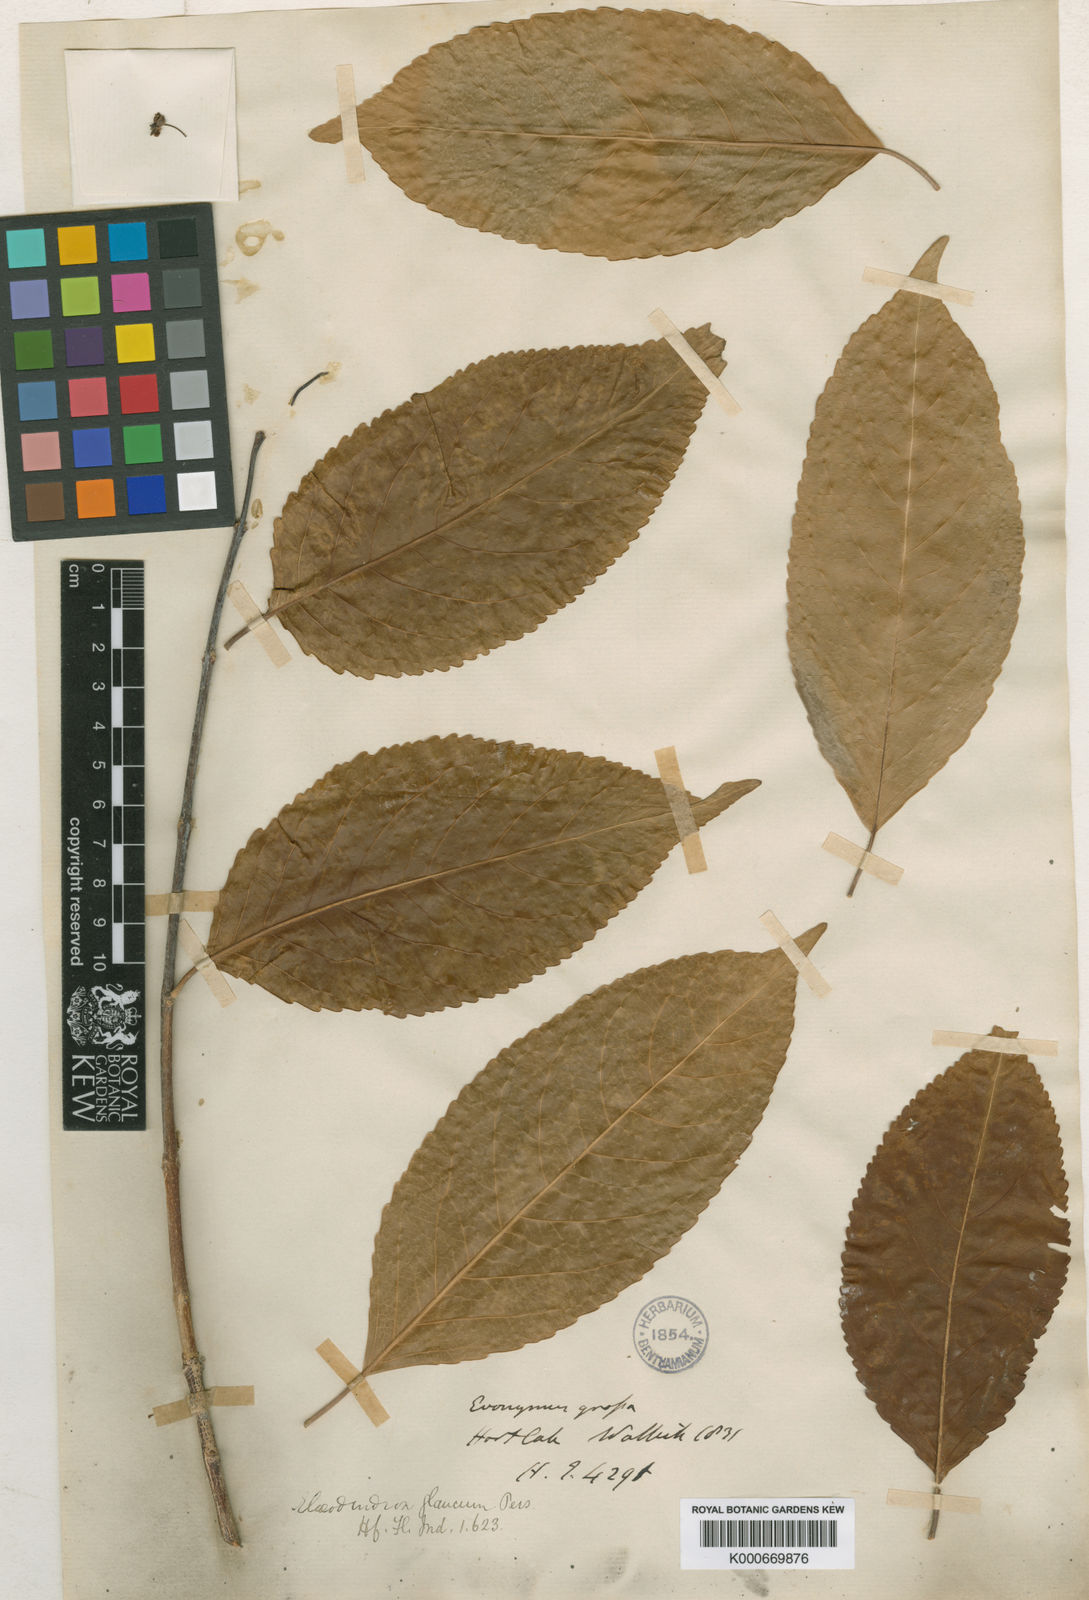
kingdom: Plantae
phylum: Tracheophyta
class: Magnoliopsida
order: Celastrales
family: Celastraceae
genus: Elaeodendron
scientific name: Elaeodendron glaucum
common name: Ceylon-tea
